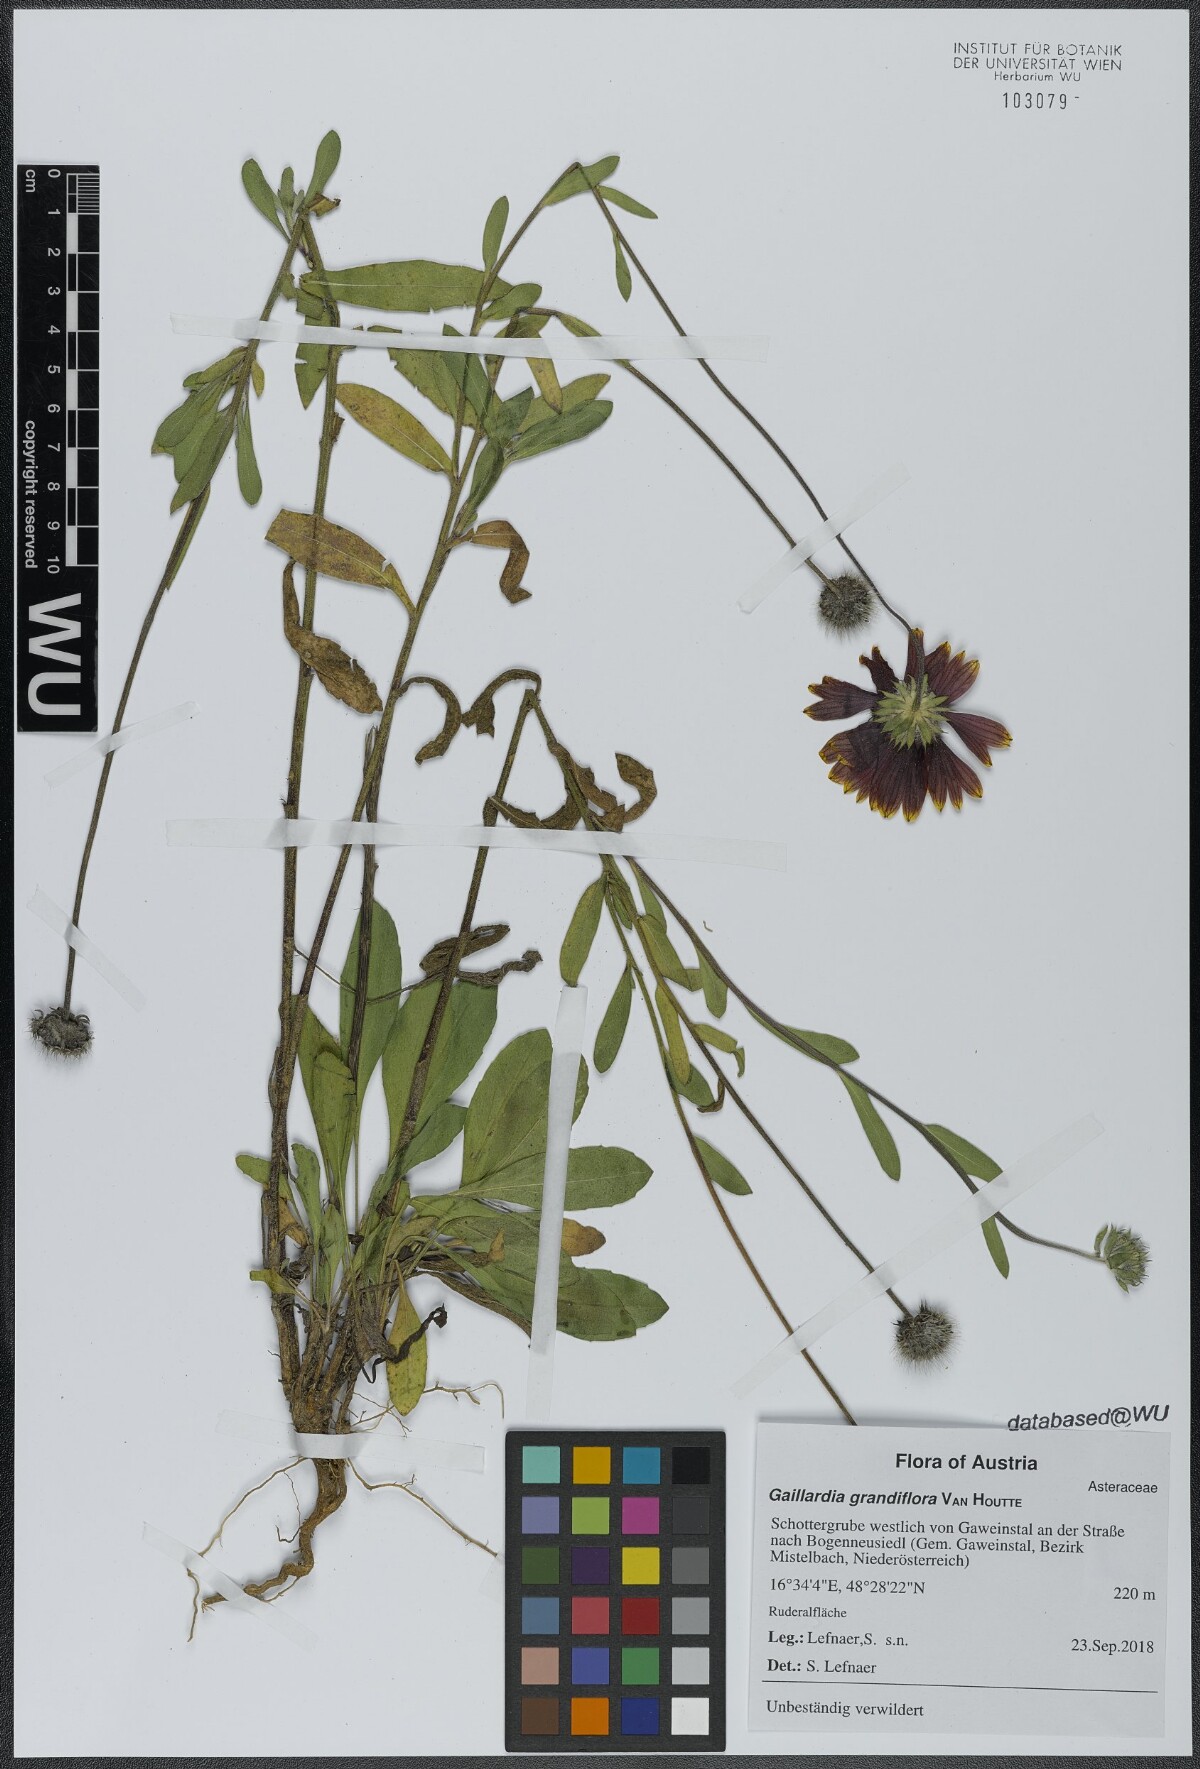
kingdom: Plantae
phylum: Tracheophyta
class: Magnoliopsida
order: Asterales
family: Asteraceae
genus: Gaillardia
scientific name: Gaillardia grandiflora
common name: Blanket flower
